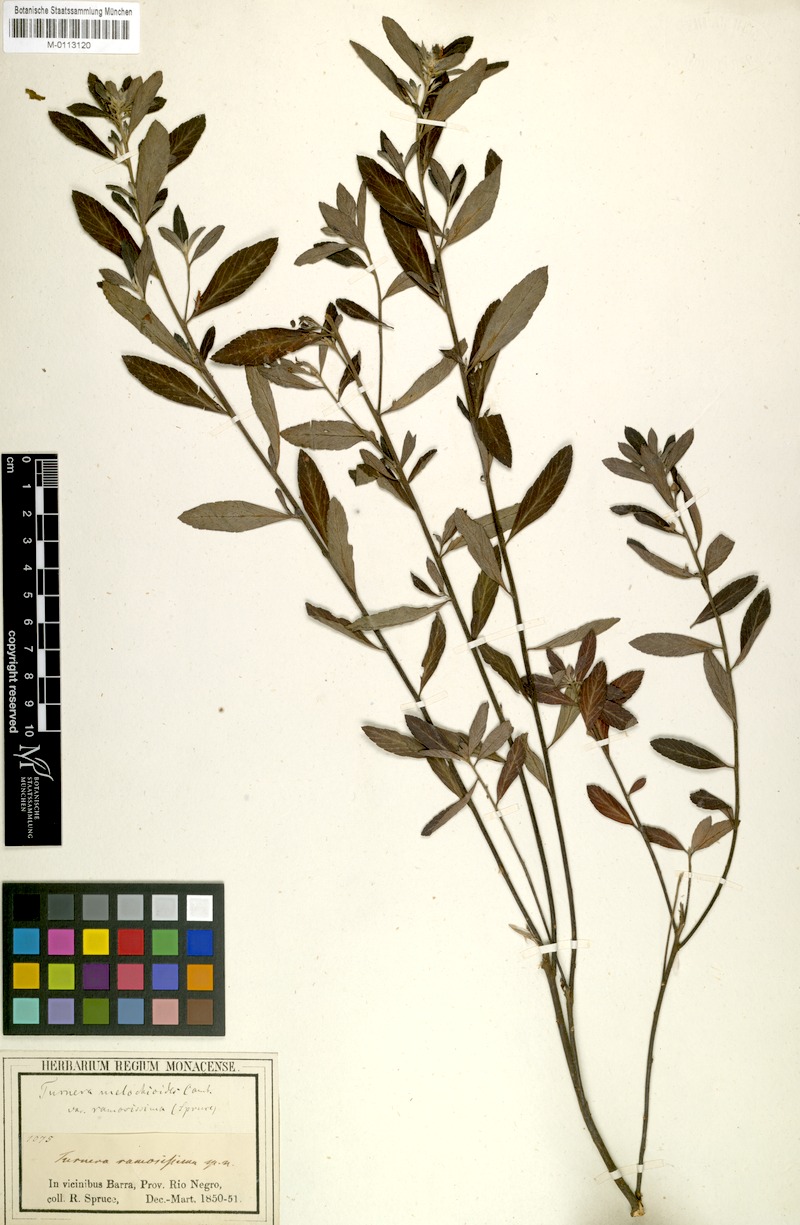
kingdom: Plantae
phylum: Tracheophyta
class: Magnoliopsida
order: Malpighiales
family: Turneraceae
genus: Turnera
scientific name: Turnera melochioides
